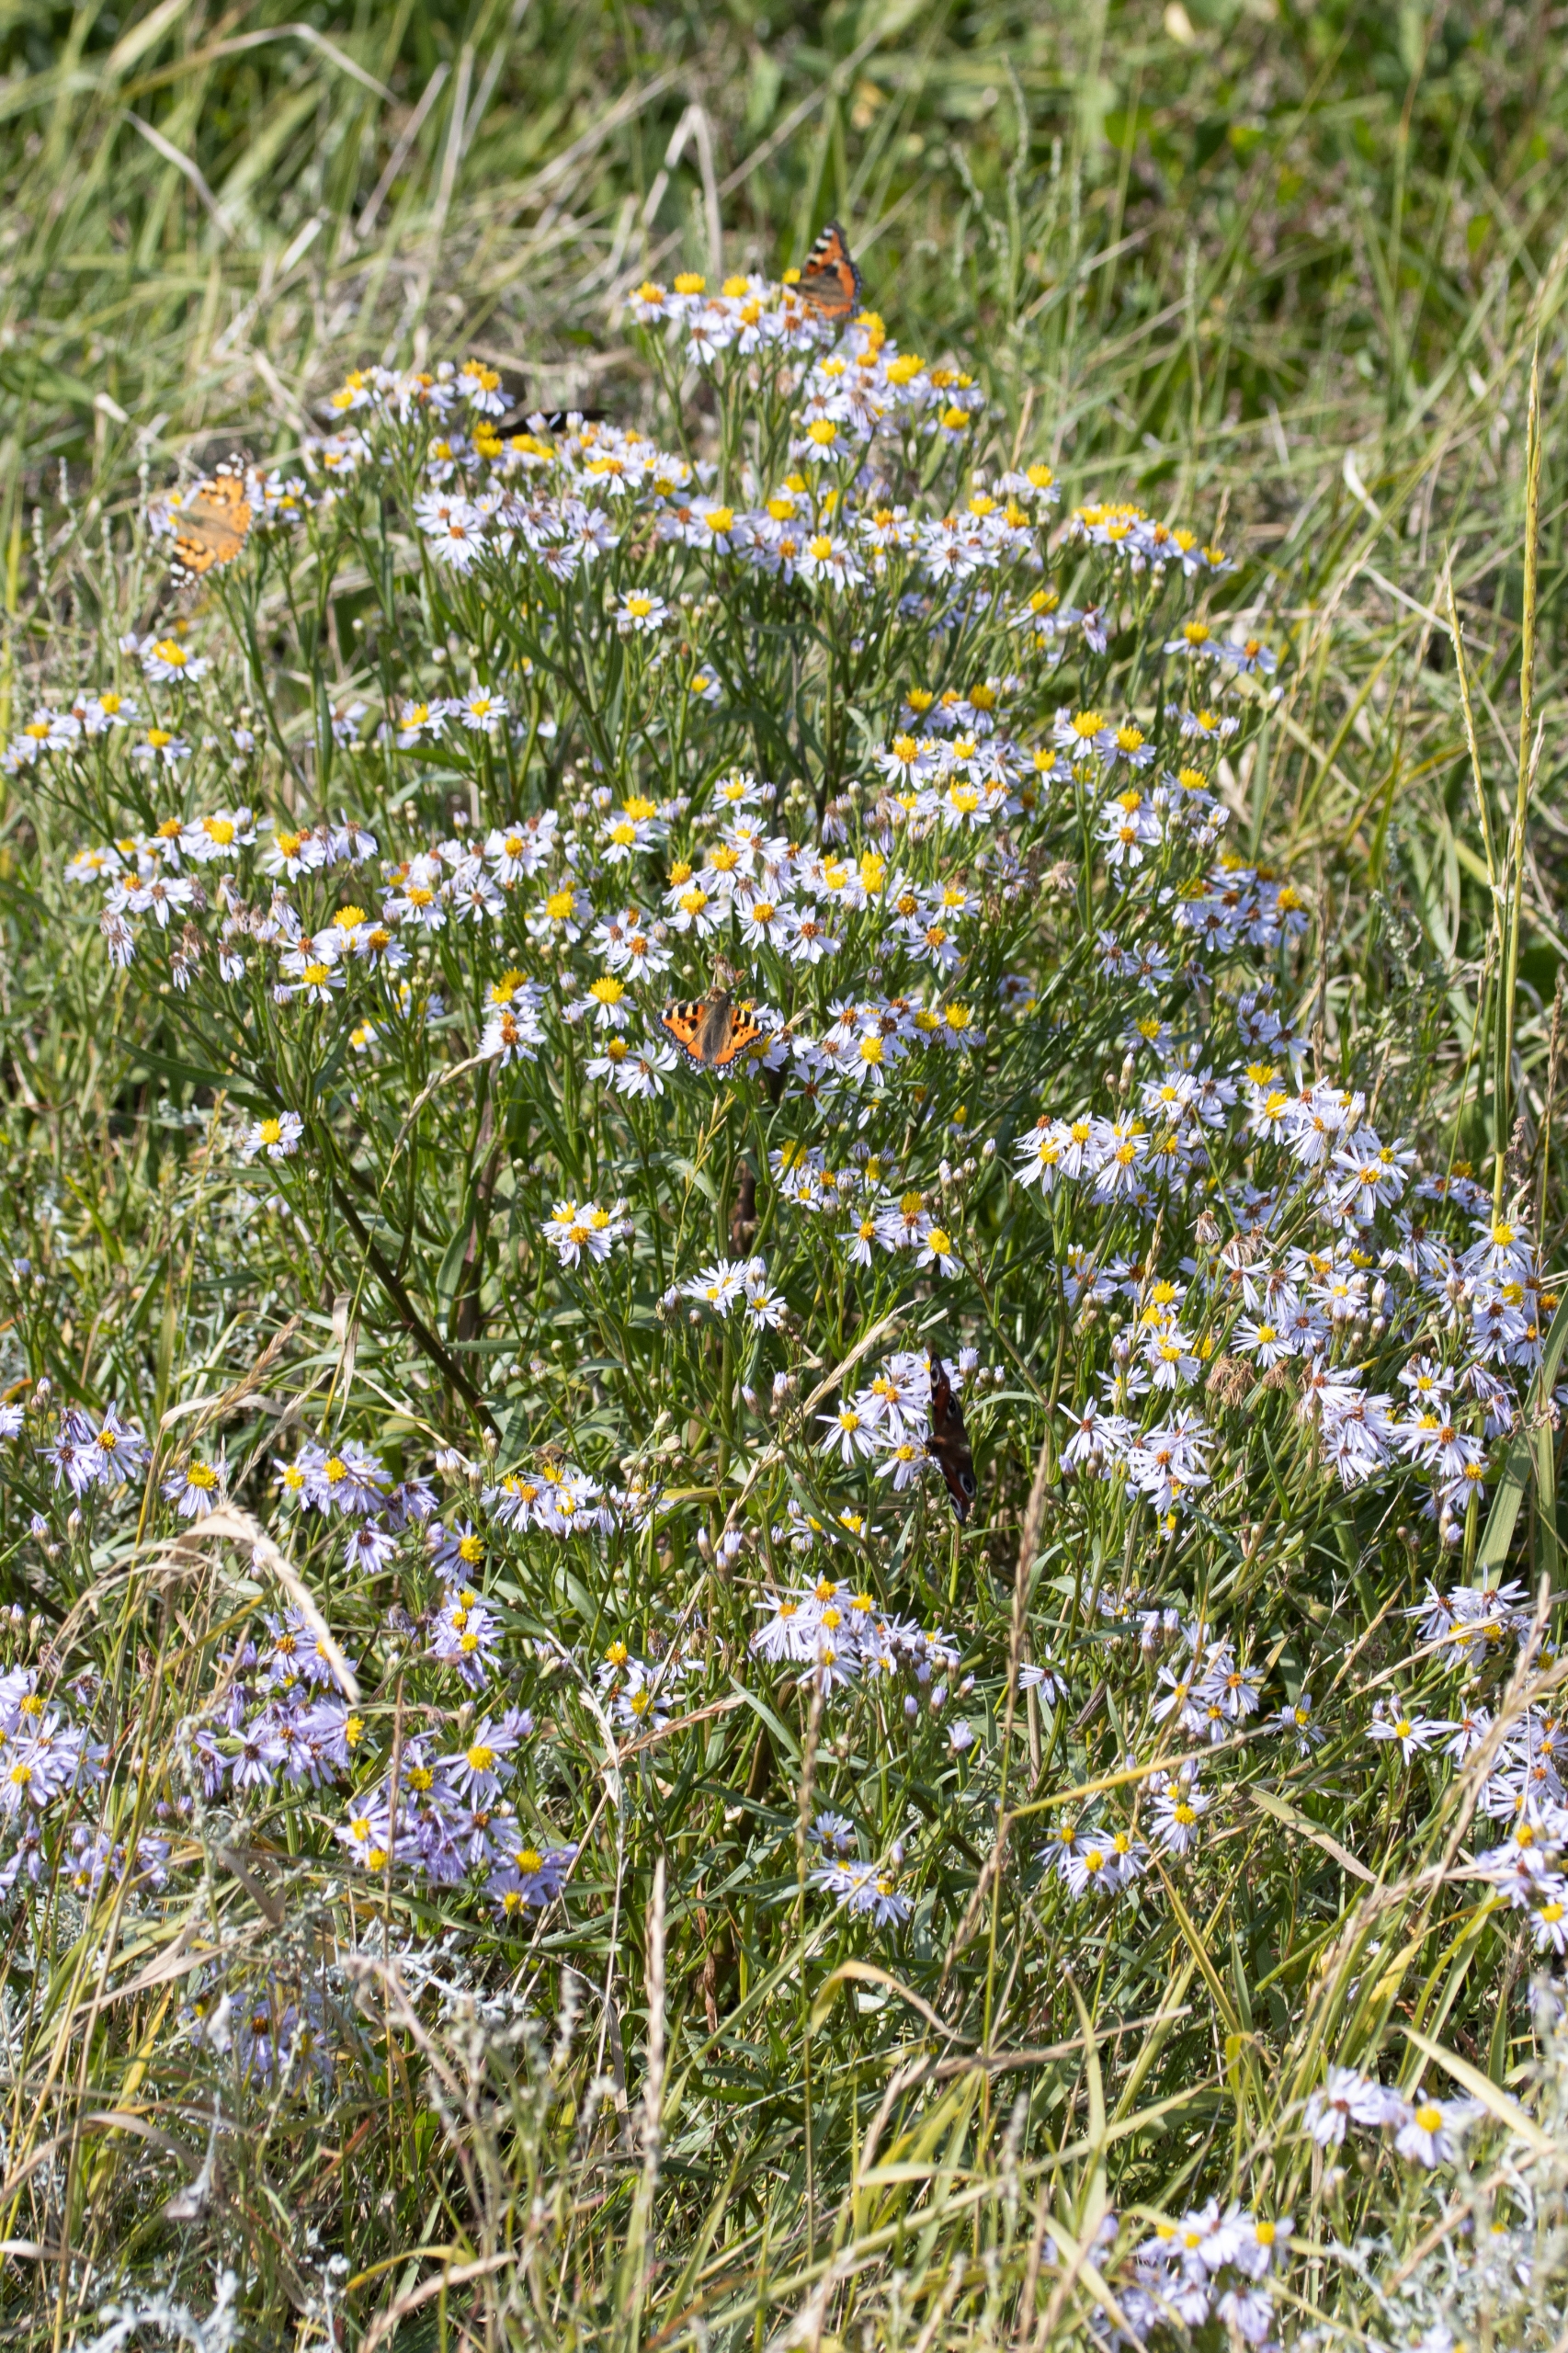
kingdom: Plantae
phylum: Tracheophyta
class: Magnoliopsida
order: Asterales
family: Asteraceae
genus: Tripolium
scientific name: Tripolium pannonicum
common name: Strandasters
